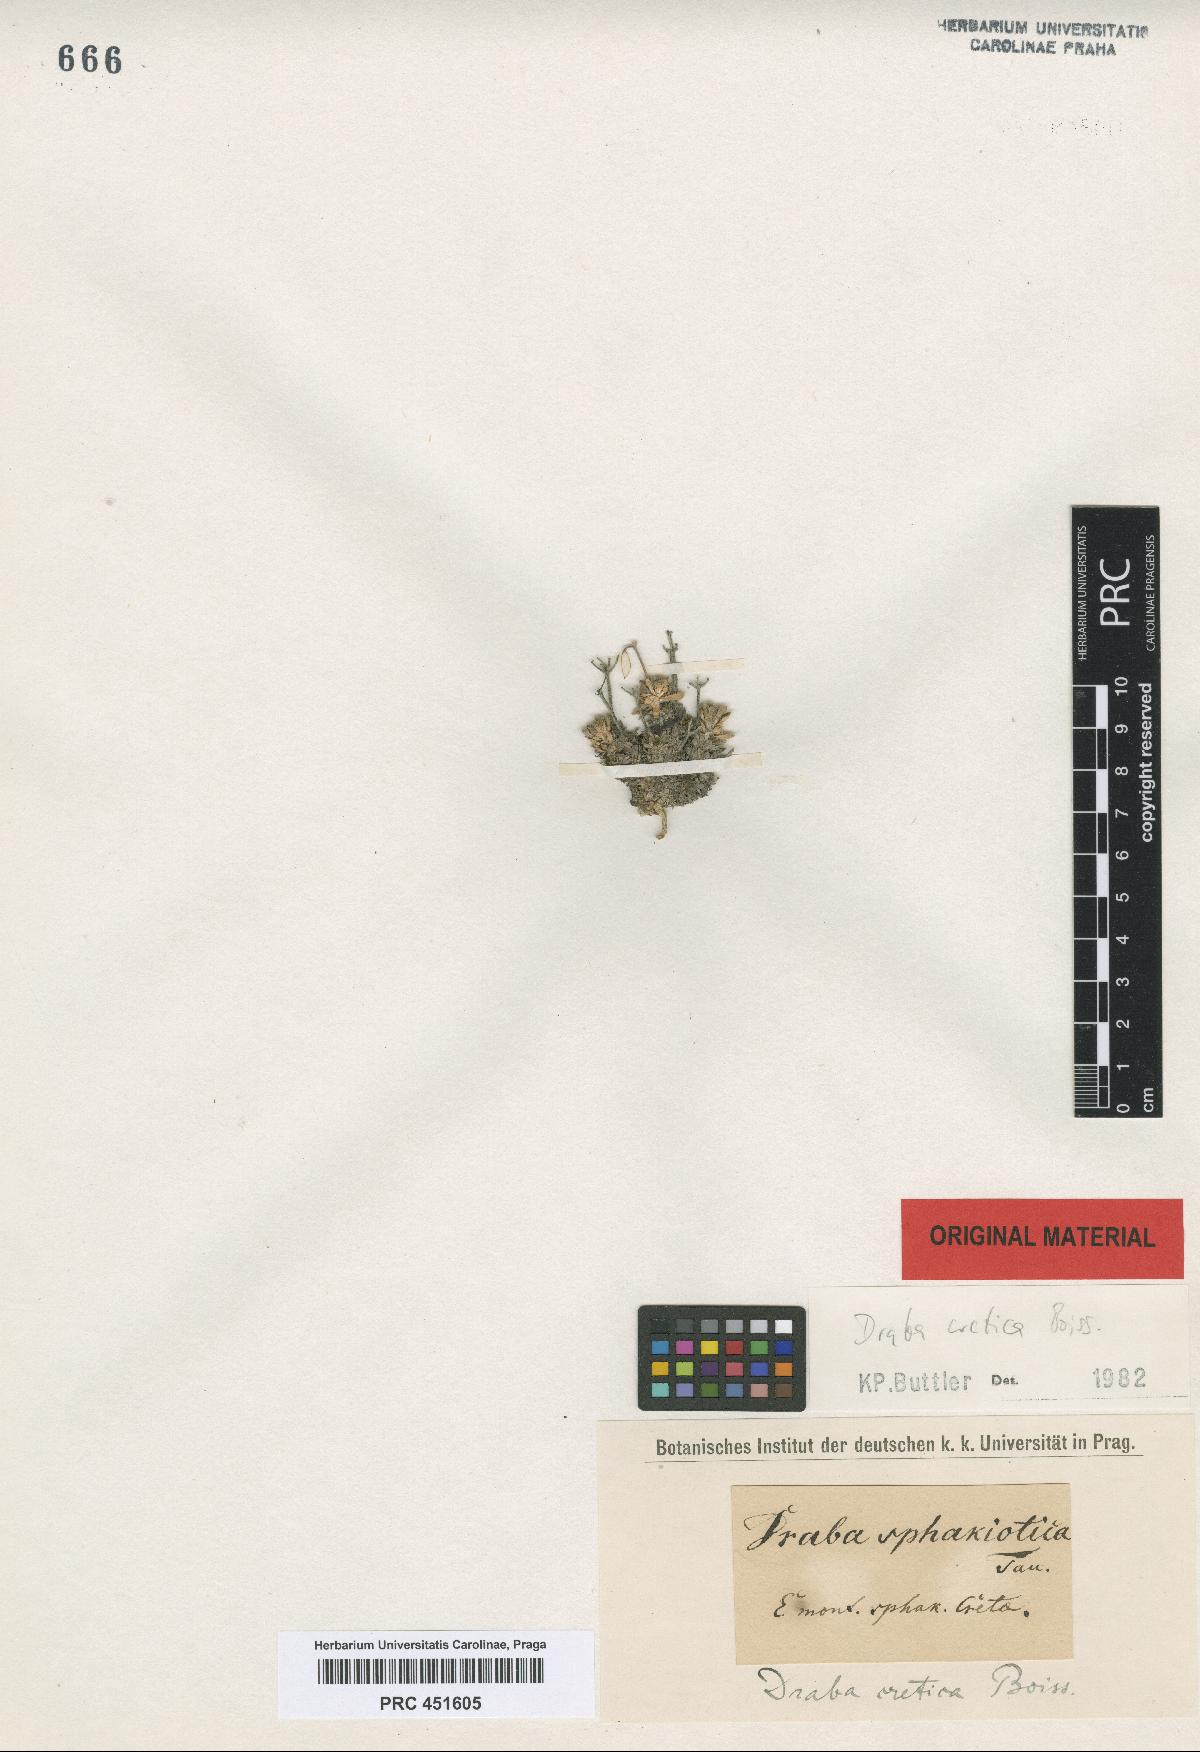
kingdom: Plantae
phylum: Tracheophyta
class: Magnoliopsida
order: Brassicales
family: Brassicaceae
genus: Draba
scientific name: Draba cretica
